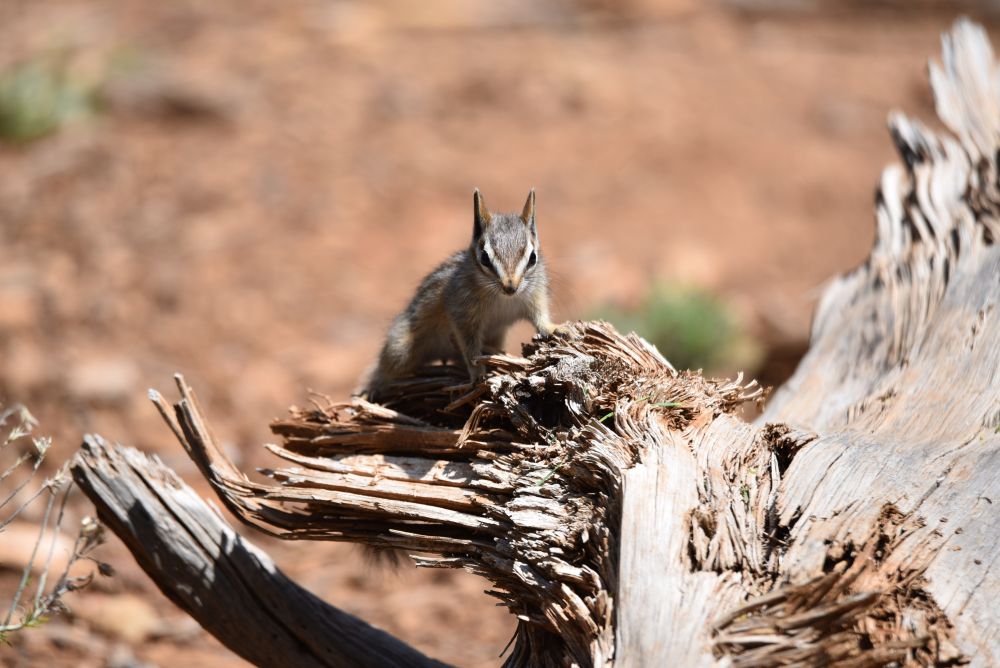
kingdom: Animalia
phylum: Chordata
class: Mammalia
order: Rodentia
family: Sciuridae
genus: Tamias
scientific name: Tamias quadrivittatus
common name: Colorado chipmunk
